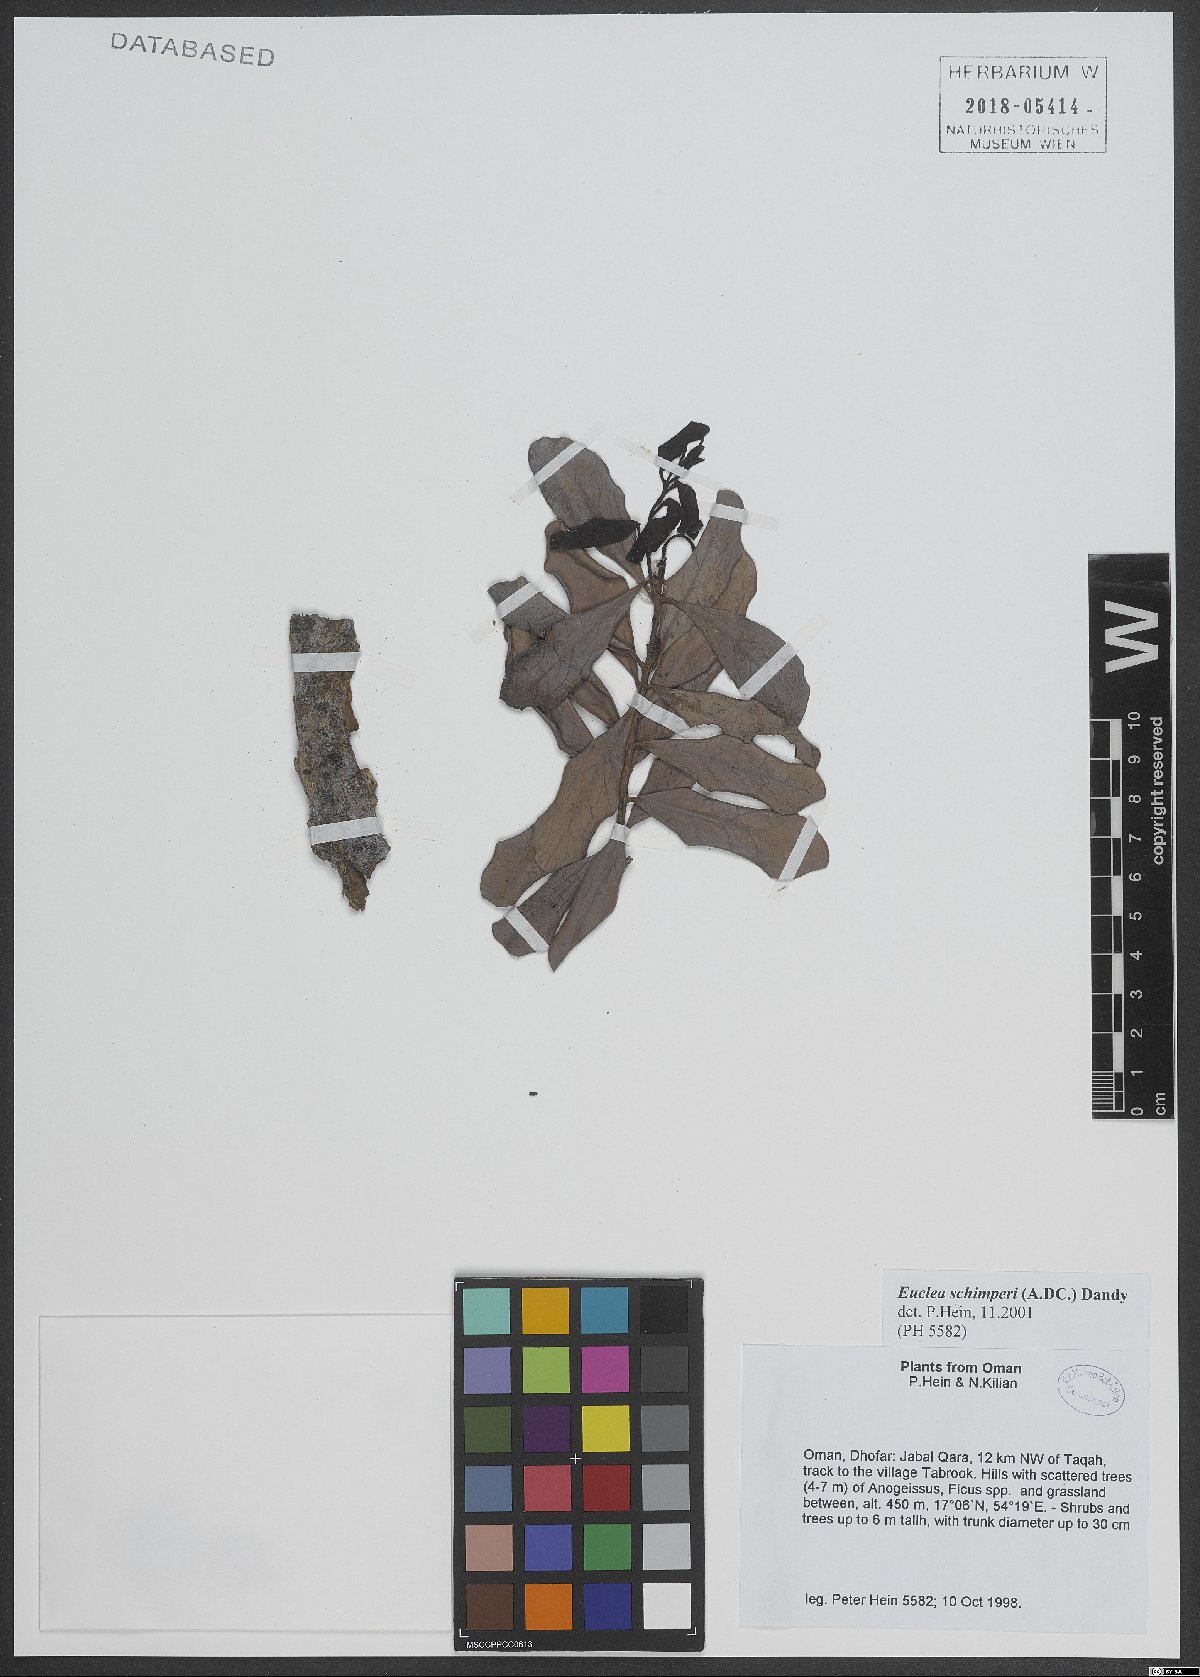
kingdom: Plantae
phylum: Tracheophyta
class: Magnoliopsida
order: Ericales
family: Ebenaceae
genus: Euclea
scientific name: Euclea racemosa
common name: Dune guarri
